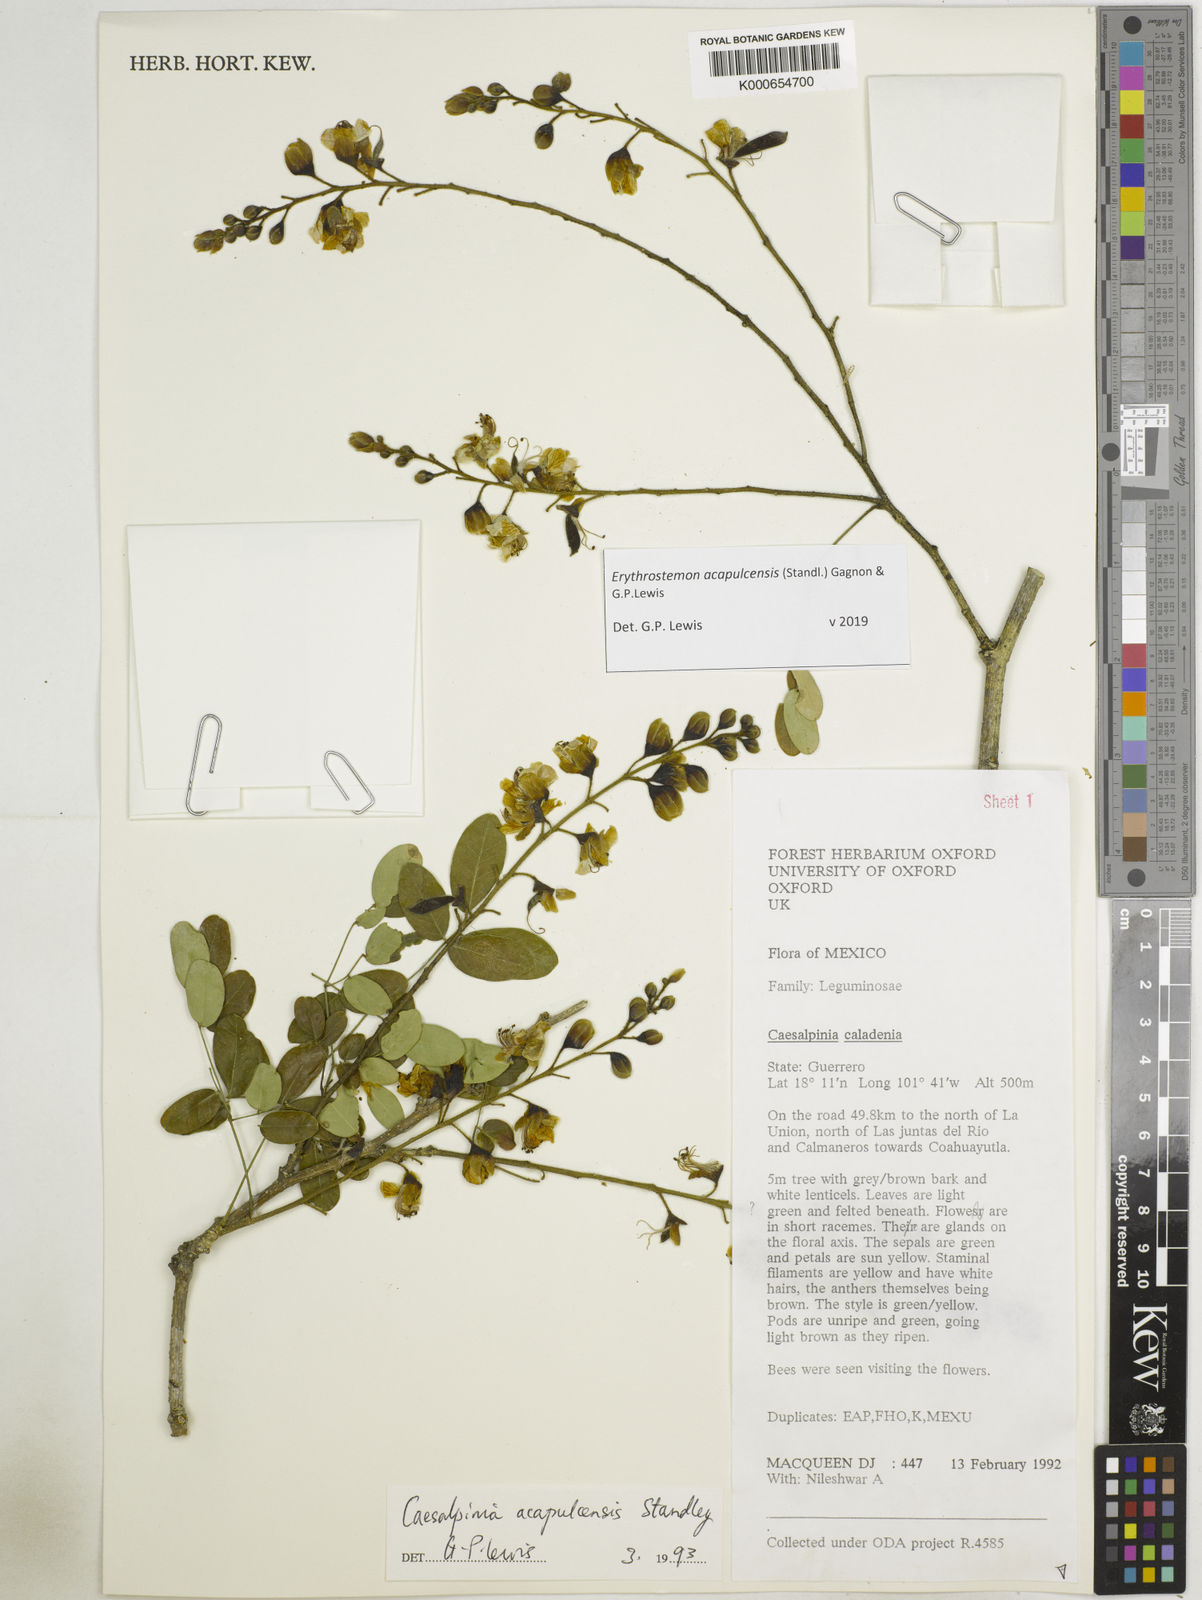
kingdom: Plantae
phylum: Tracheophyta
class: Magnoliopsida
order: Fabales
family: Fabaceae
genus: Erythrostemon
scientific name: Erythrostemon acapulcensis
